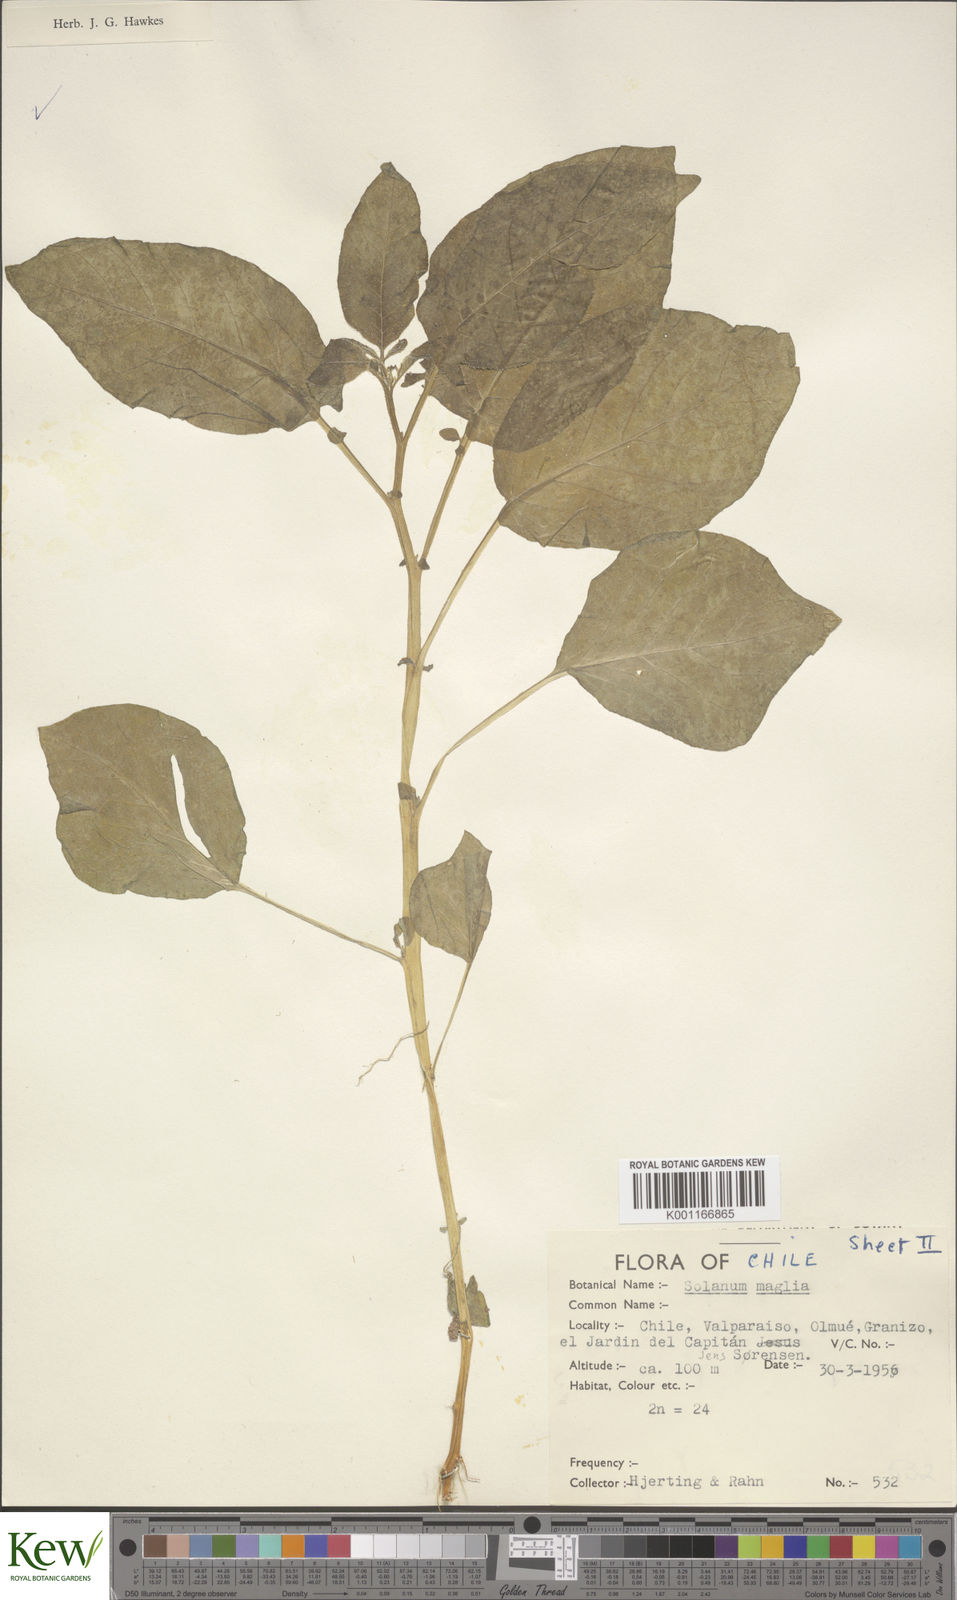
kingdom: Plantae
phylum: Tracheophyta
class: Magnoliopsida
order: Solanales
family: Solanaceae
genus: Solanum
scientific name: Solanum maglia
